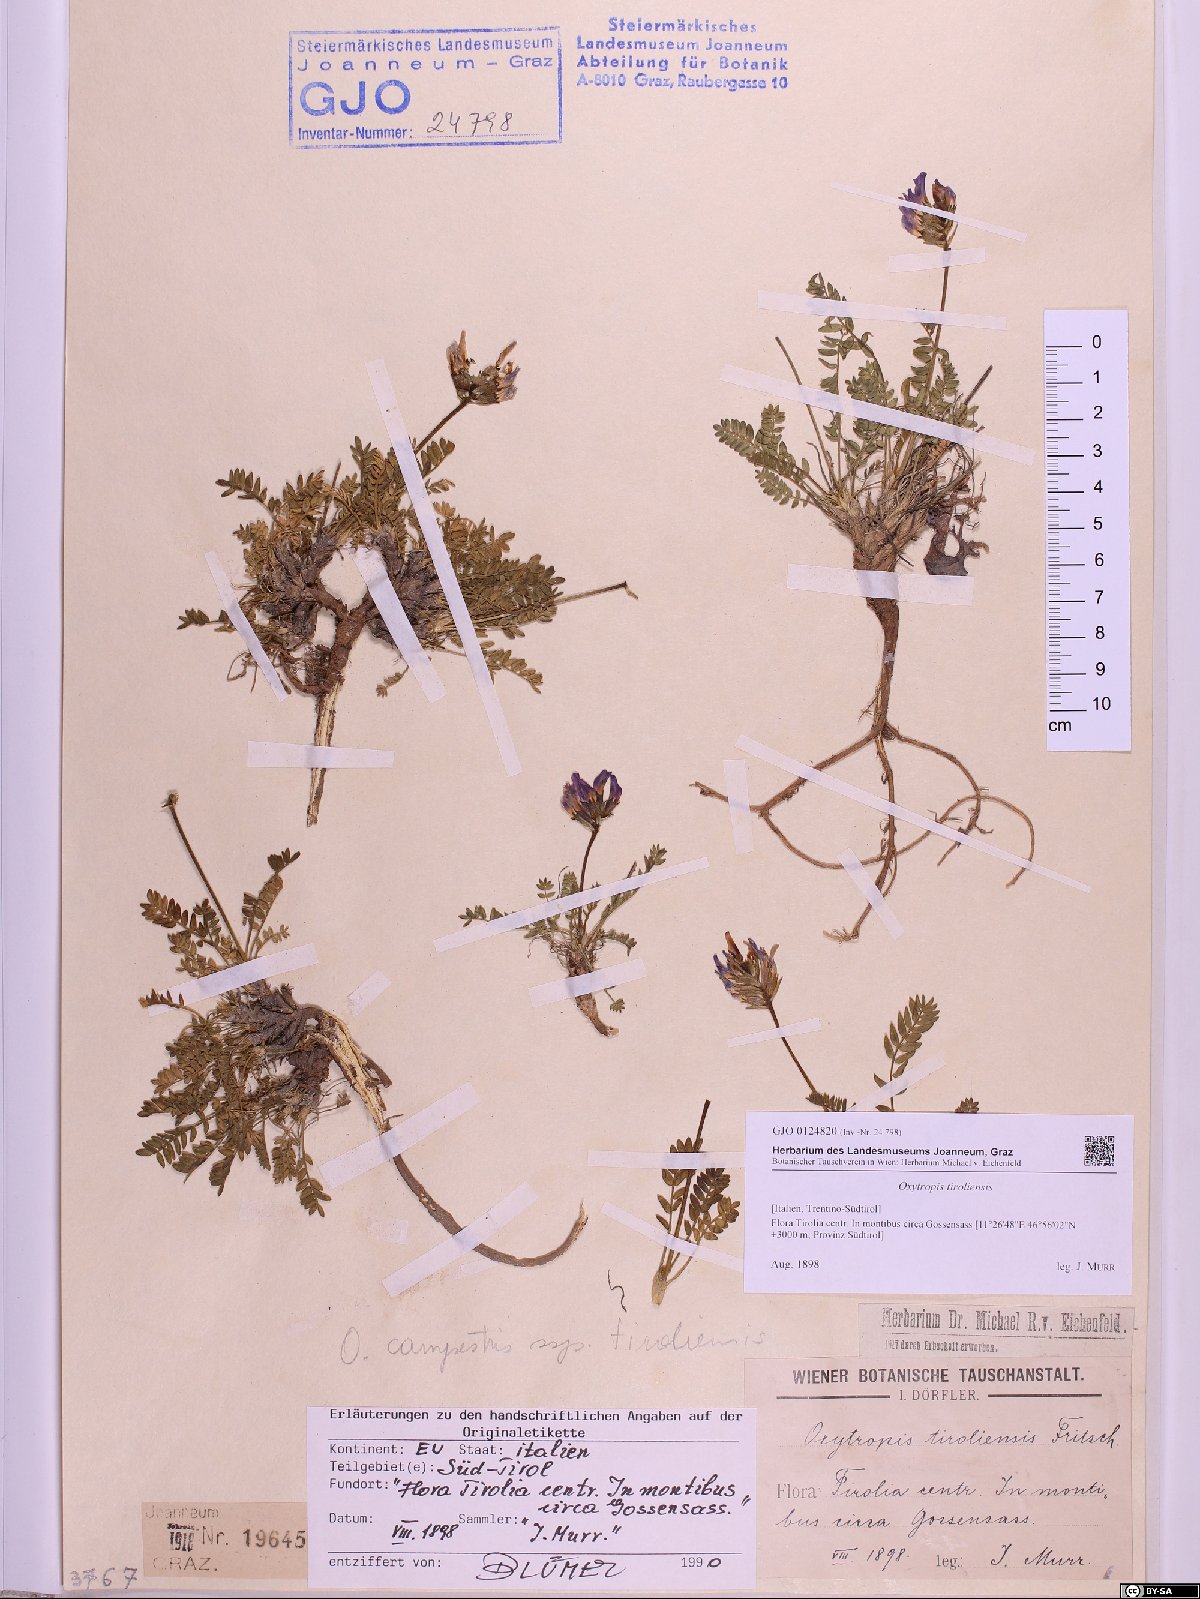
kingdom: Plantae
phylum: Tracheophyta
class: Magnoliopsida
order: Fabales
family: Fabaceae
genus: Oxytropis
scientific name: Oxytropis campestris
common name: Field locoweed
